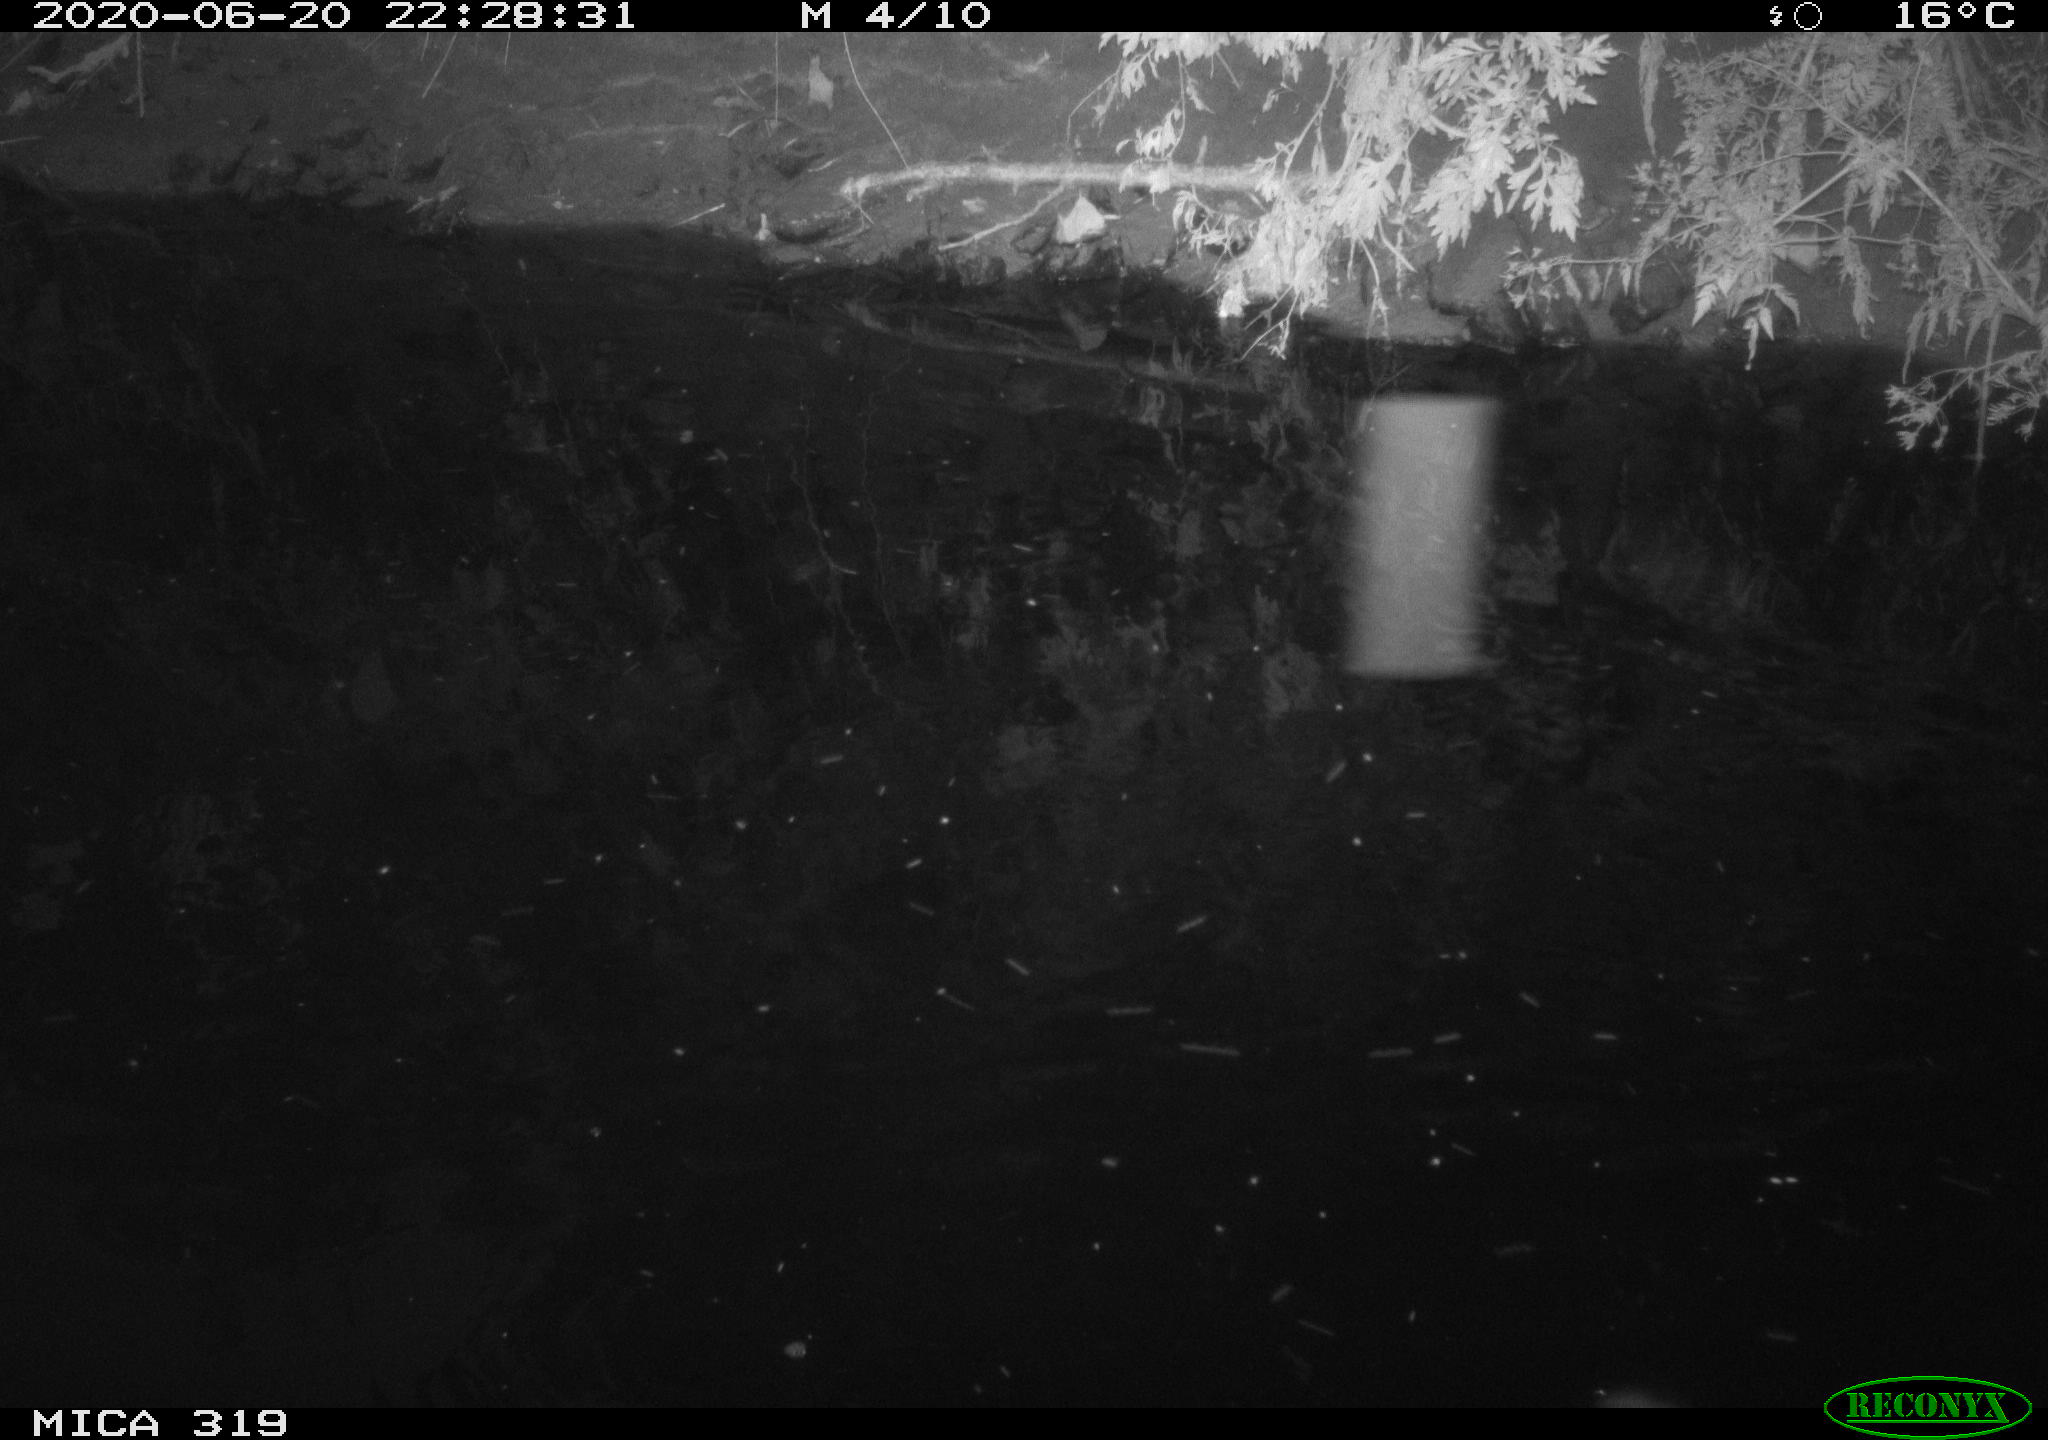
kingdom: Animalia
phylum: Chordata
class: Aves
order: Anseriformes
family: Anatidae
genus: Anas
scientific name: Anas platyrhynchos
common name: Mallard
